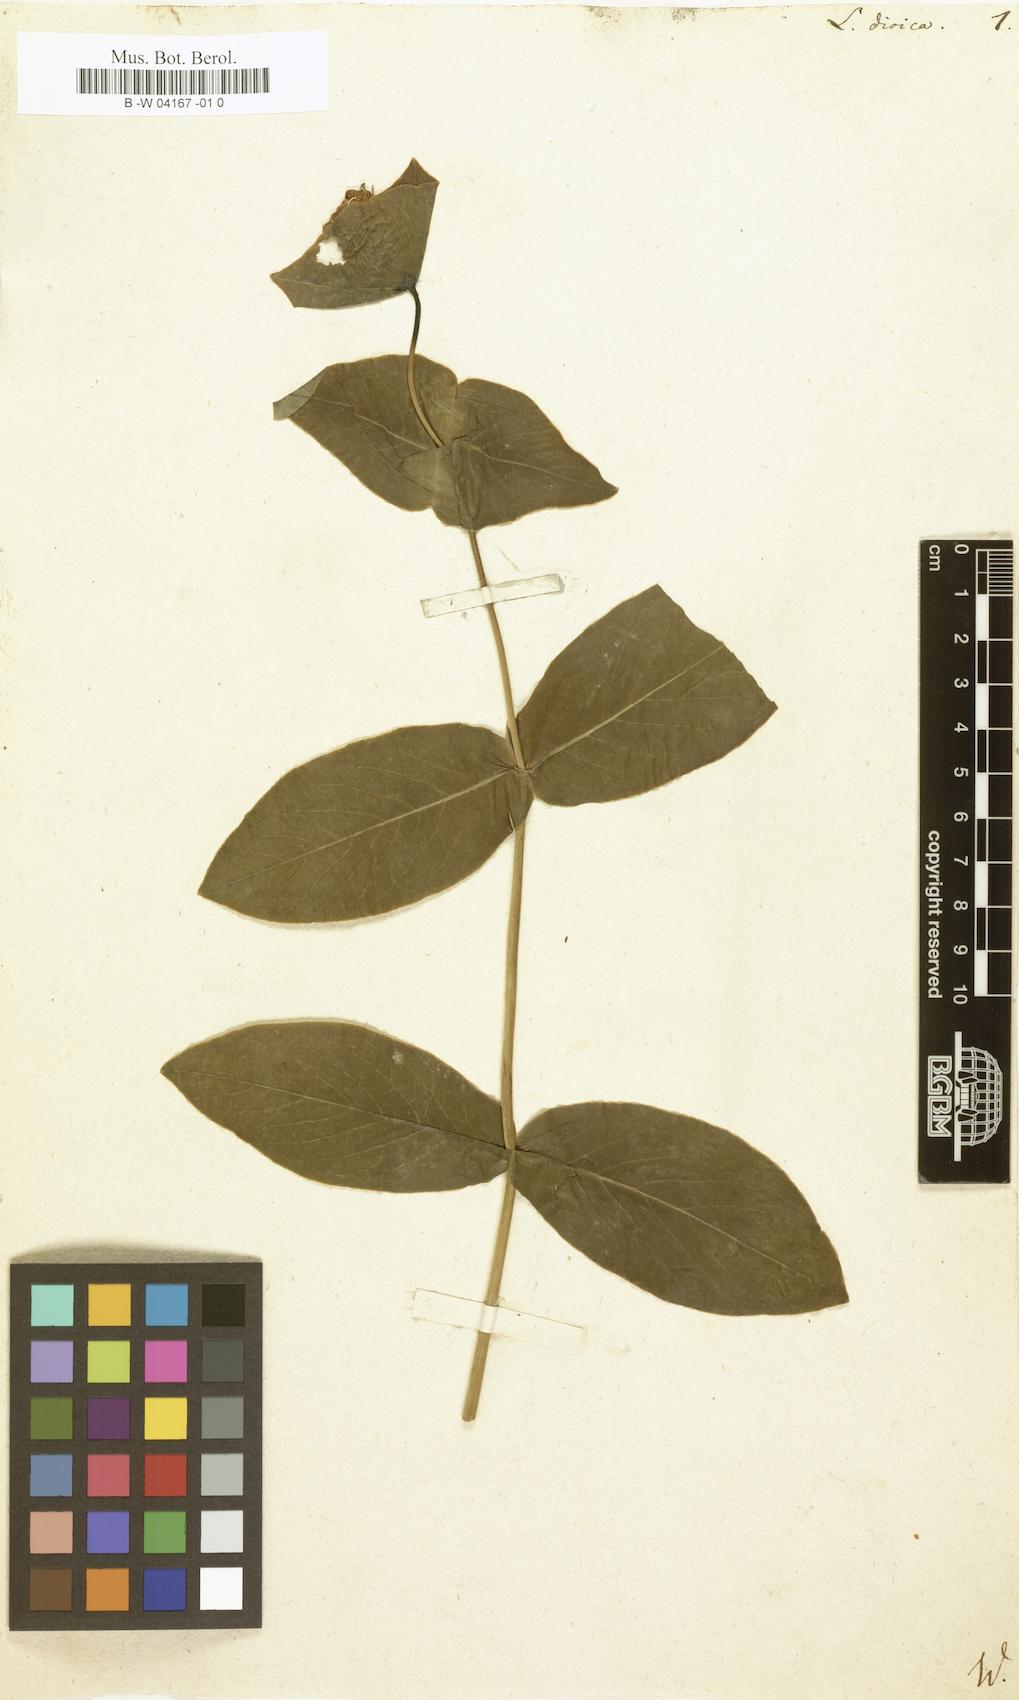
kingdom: Plantae
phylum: Tracheophyta
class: Magnoliopsida
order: Dipsacales
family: Caprifoliaceae
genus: Lonicera
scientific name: Lonicera dioica
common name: Limber honeysuckle
